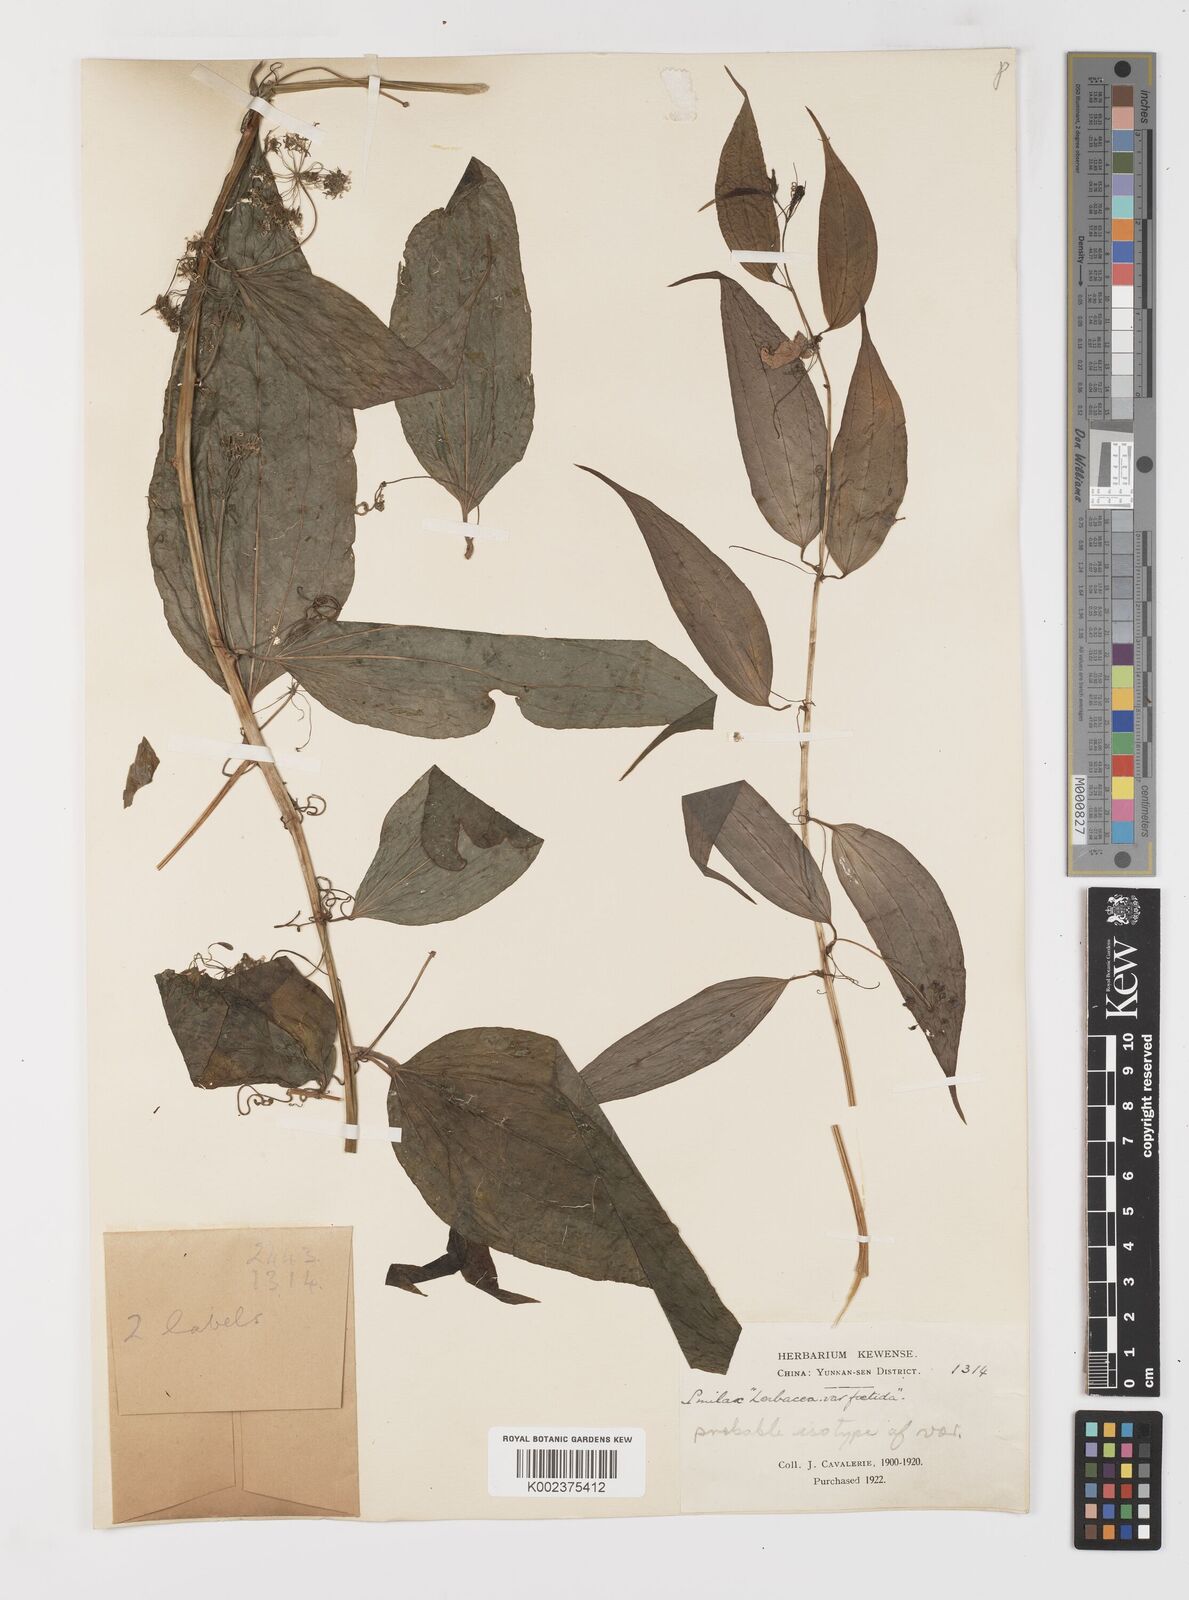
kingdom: Plantae
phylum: Tracheophyta
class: Liliopsida
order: Liliales
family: Smilacaceae
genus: Smilax
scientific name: Smilax herbacea
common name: Jacob's-ladder
